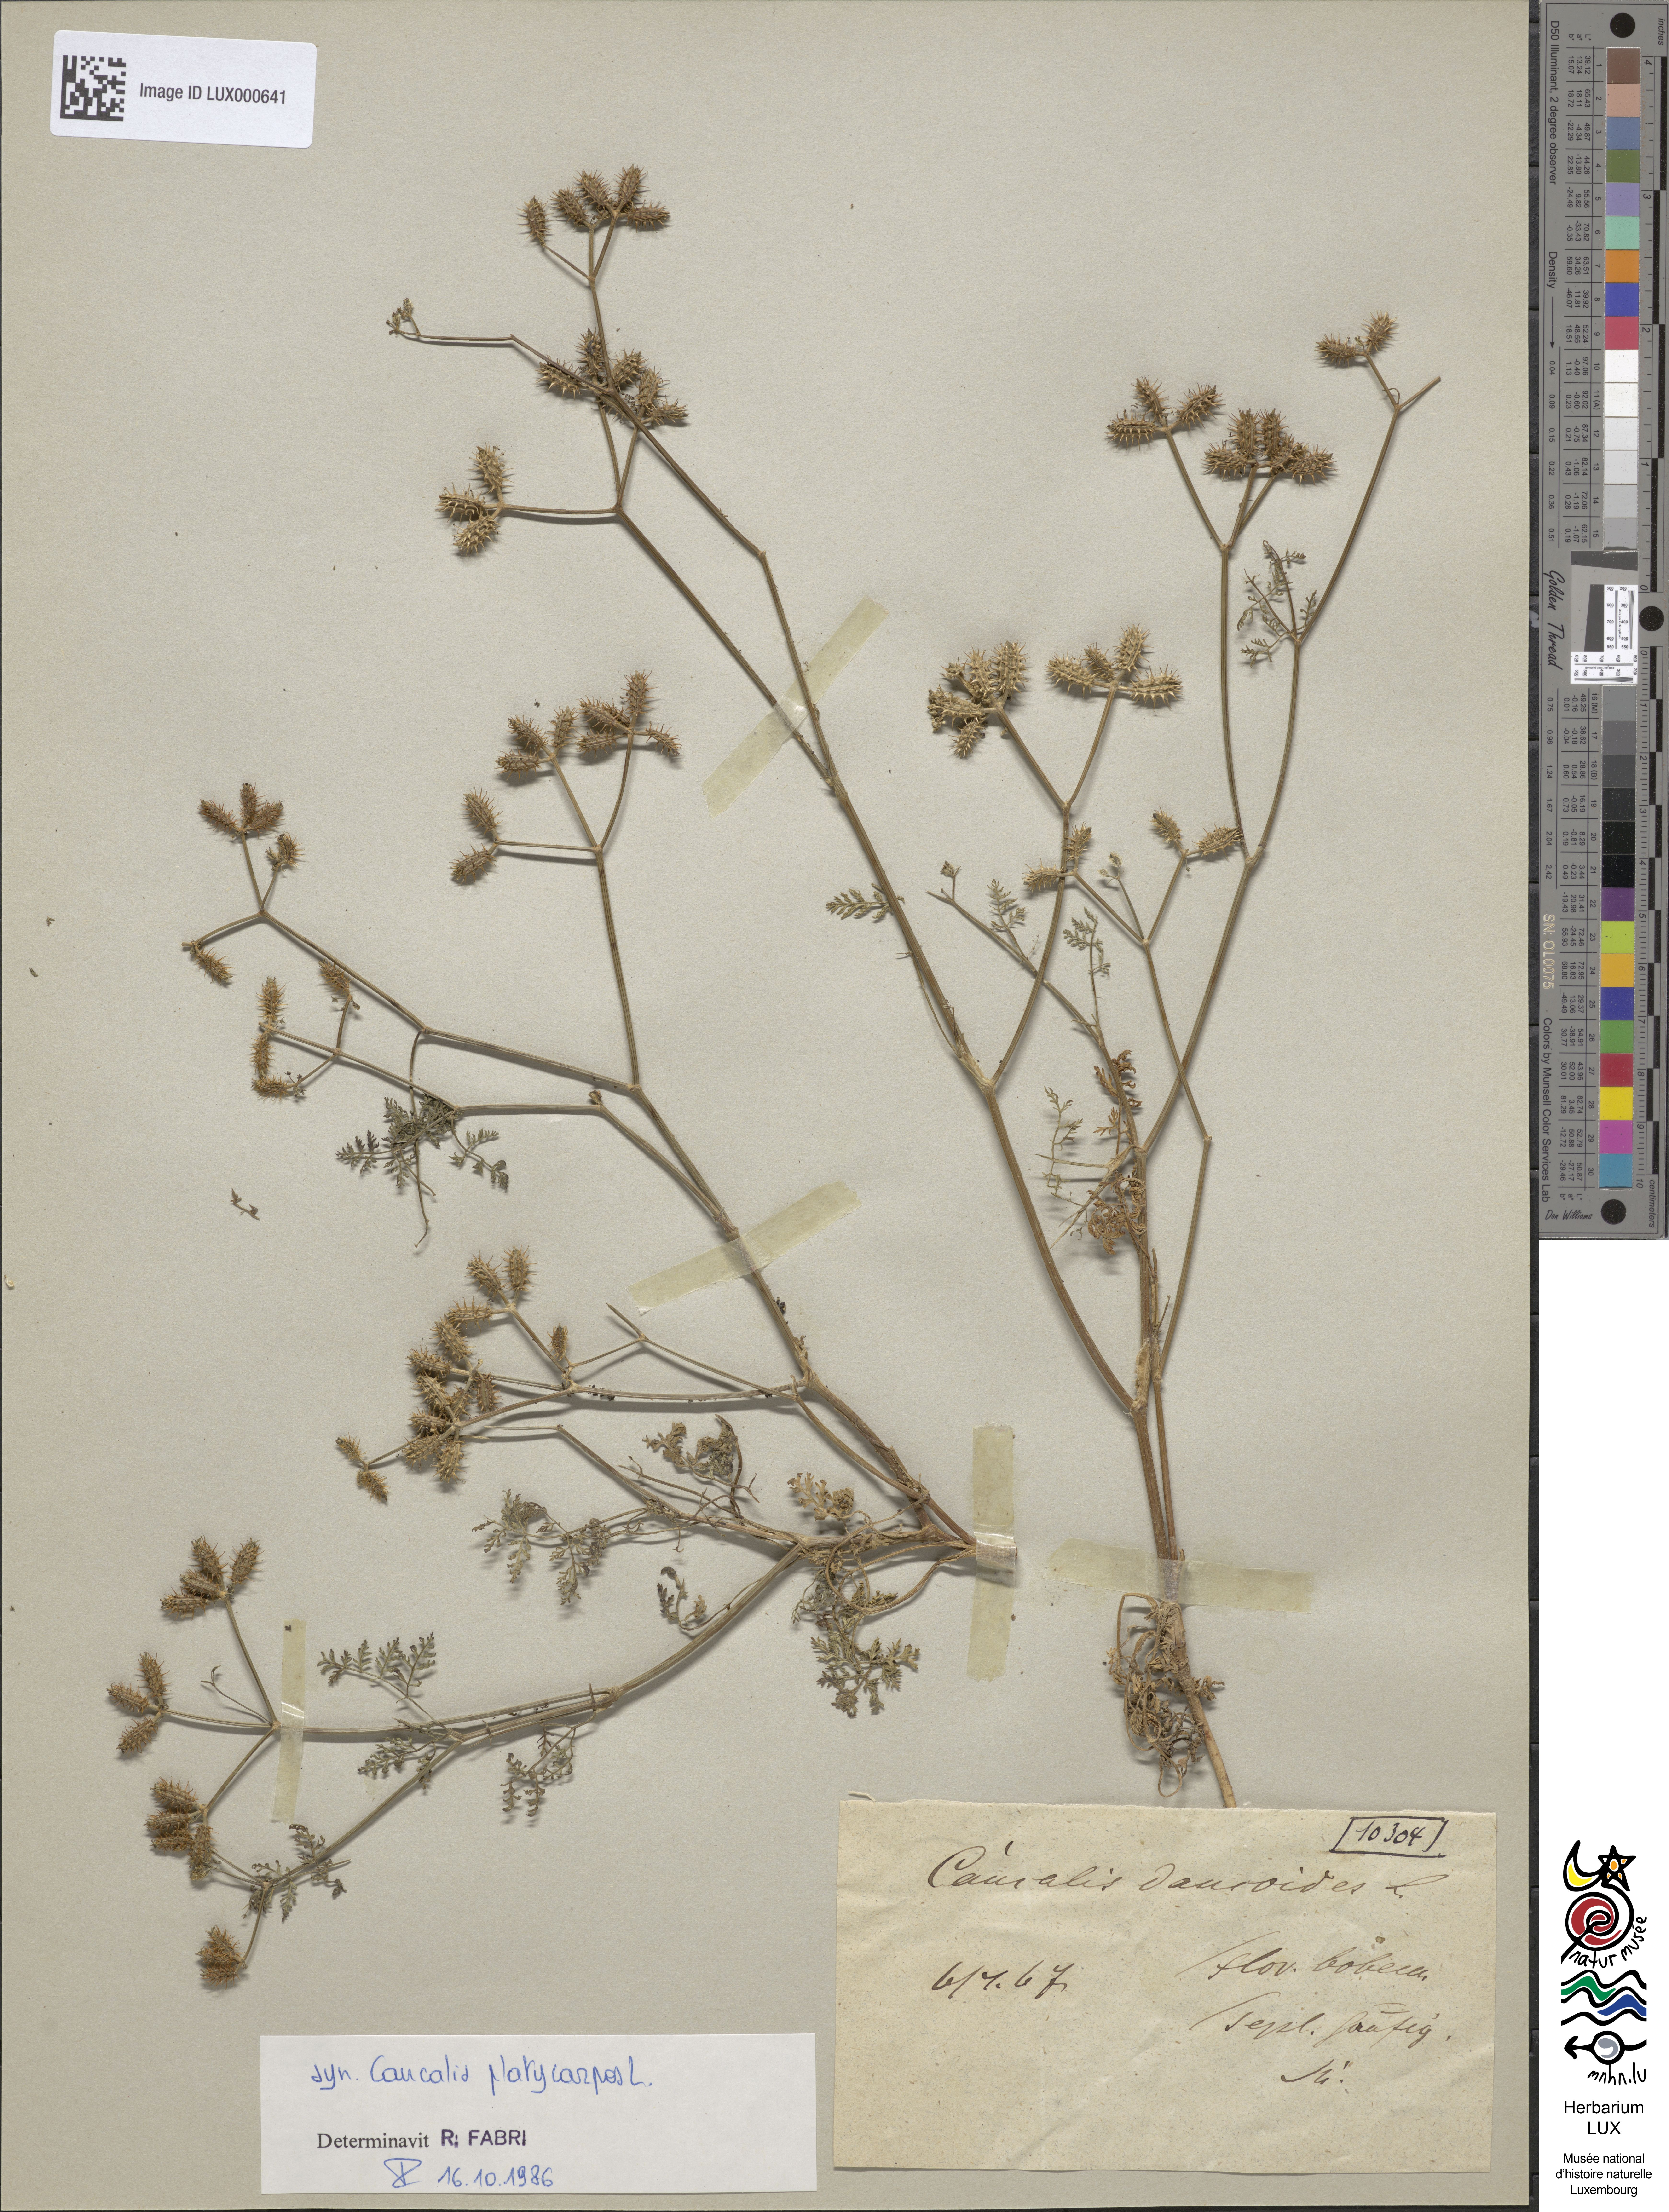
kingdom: Plantae
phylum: Tracheophyta
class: Magnoliopsida
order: Apiales
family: Apiaceae
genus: Orlaya
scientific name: Orlaya daucoides
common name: Flat-fruit orlaya
